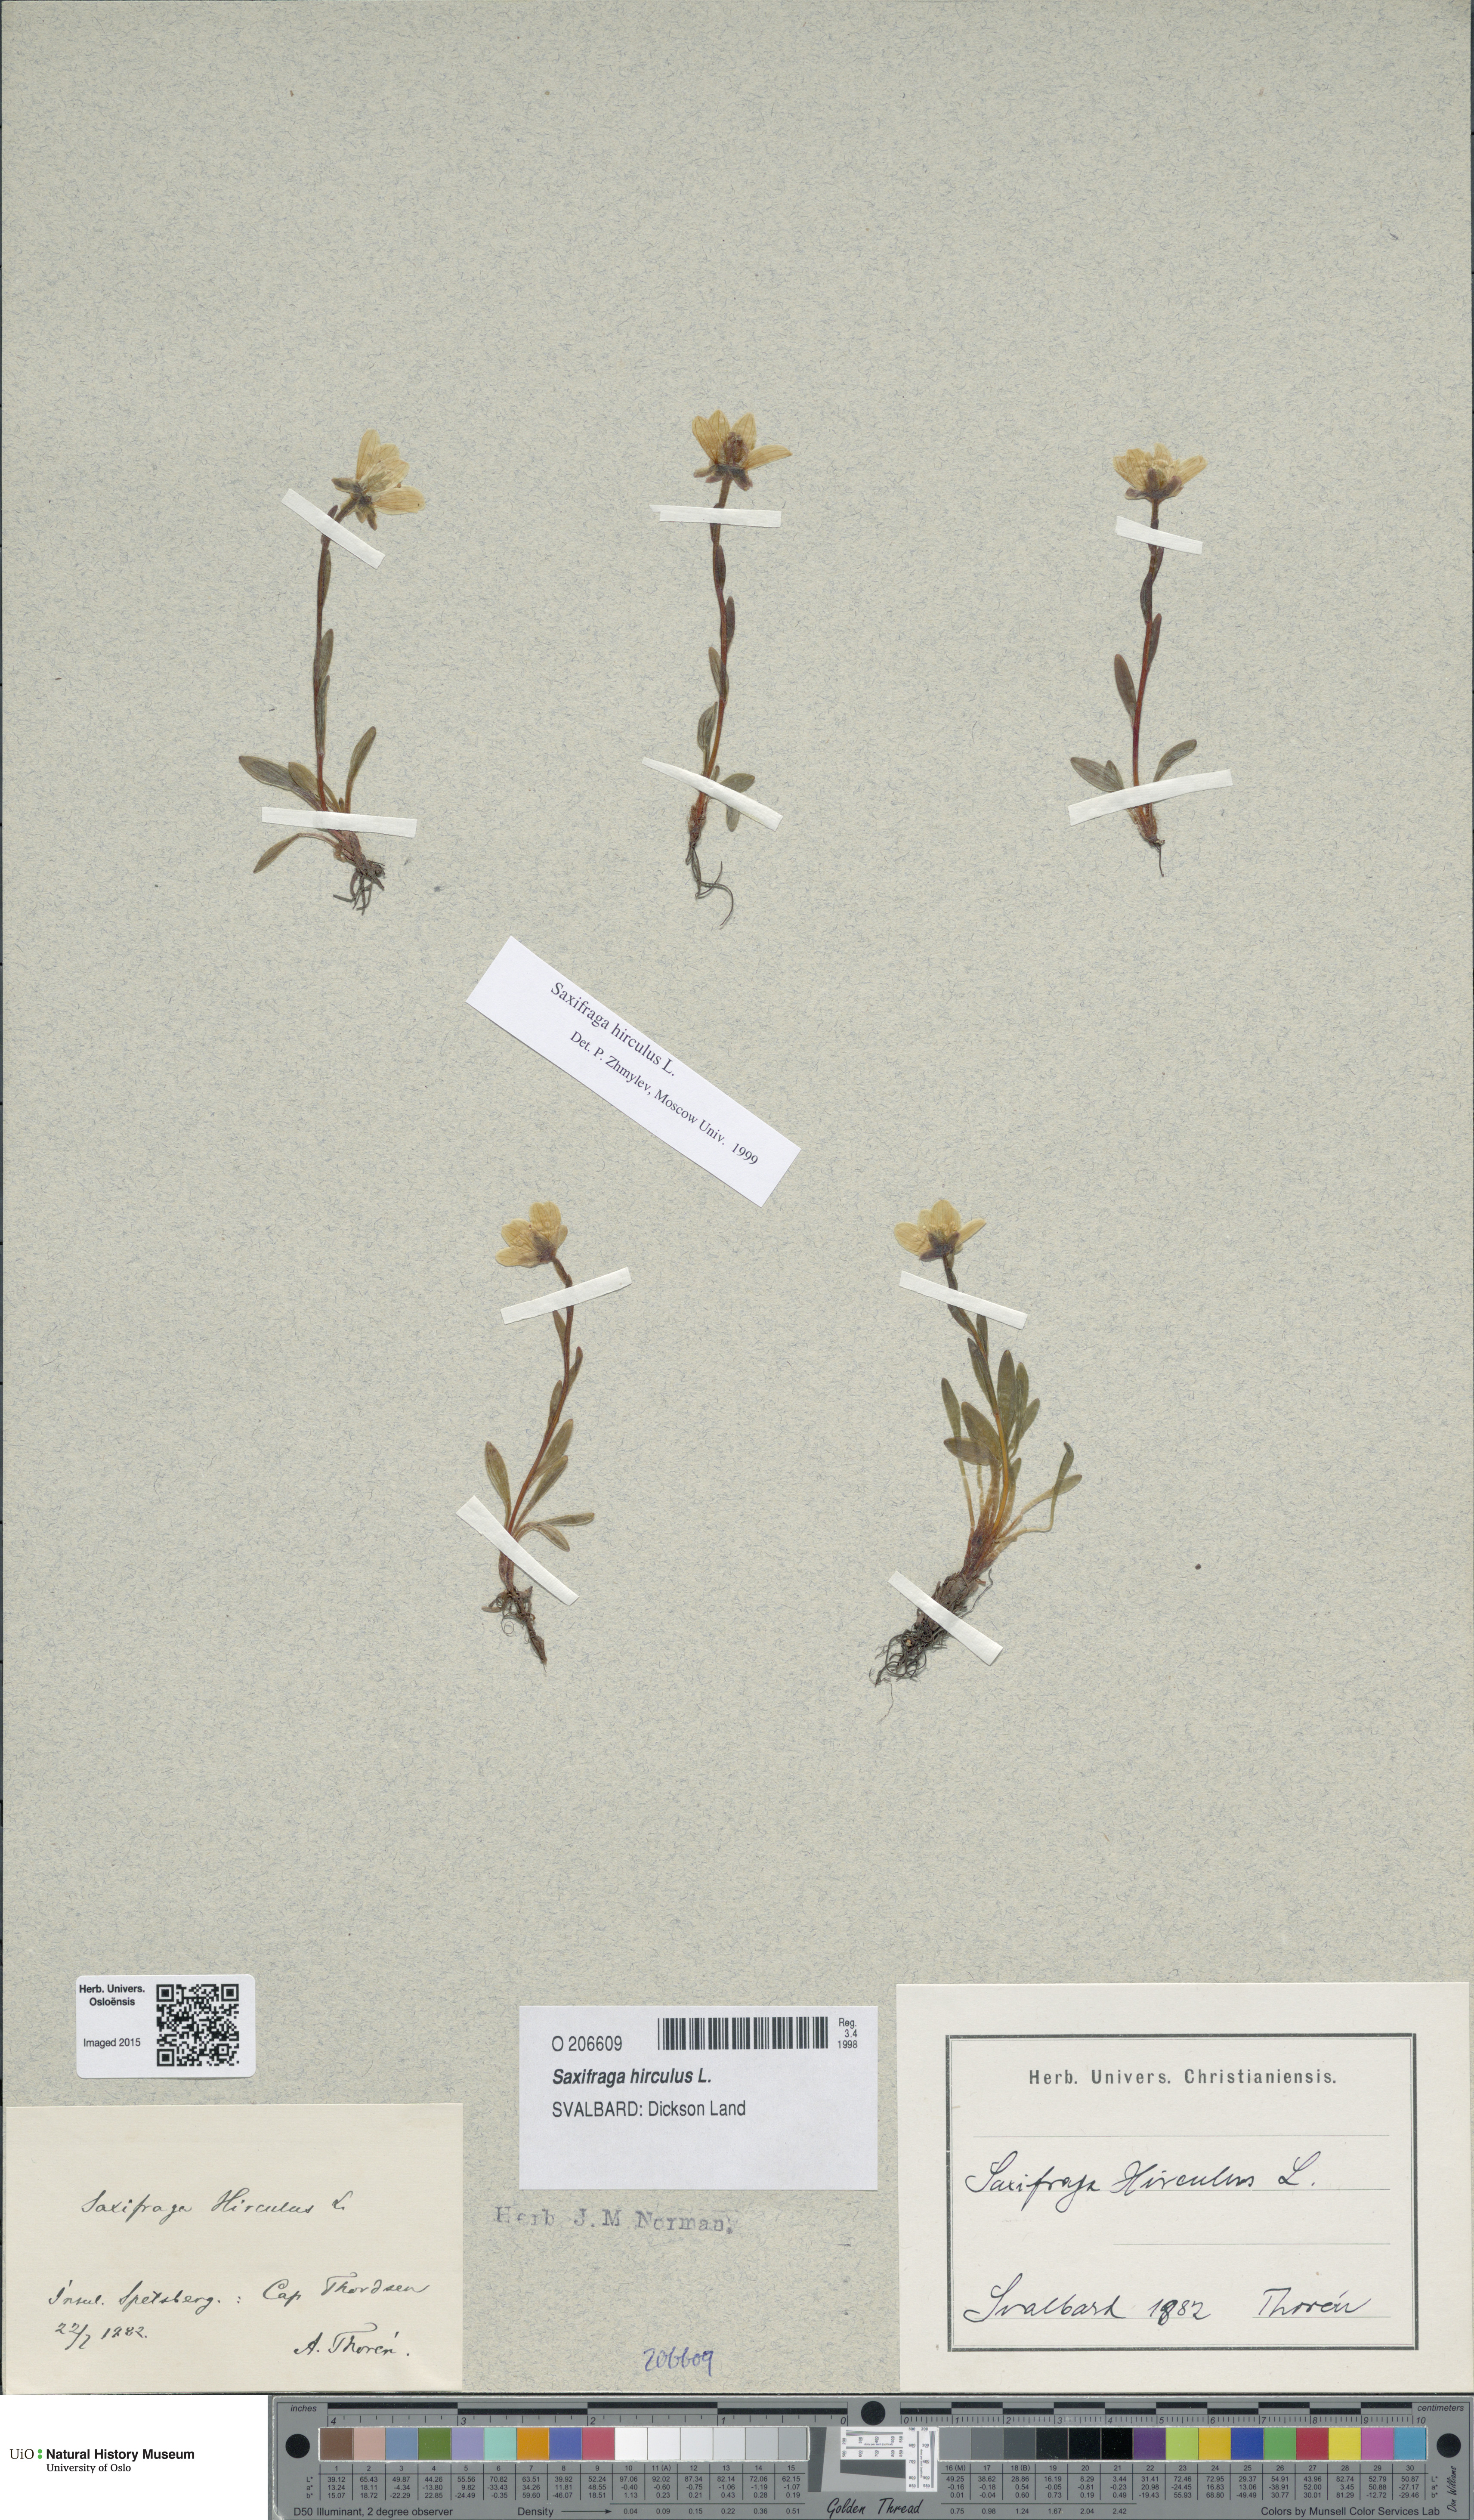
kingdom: Plantae
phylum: Tracheophyta
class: Magnoliopsida
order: Saxifragales
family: Saxifragaceae
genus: Saxifraga
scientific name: Saxifraga hirculus
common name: Yellow marsh saxifrage
